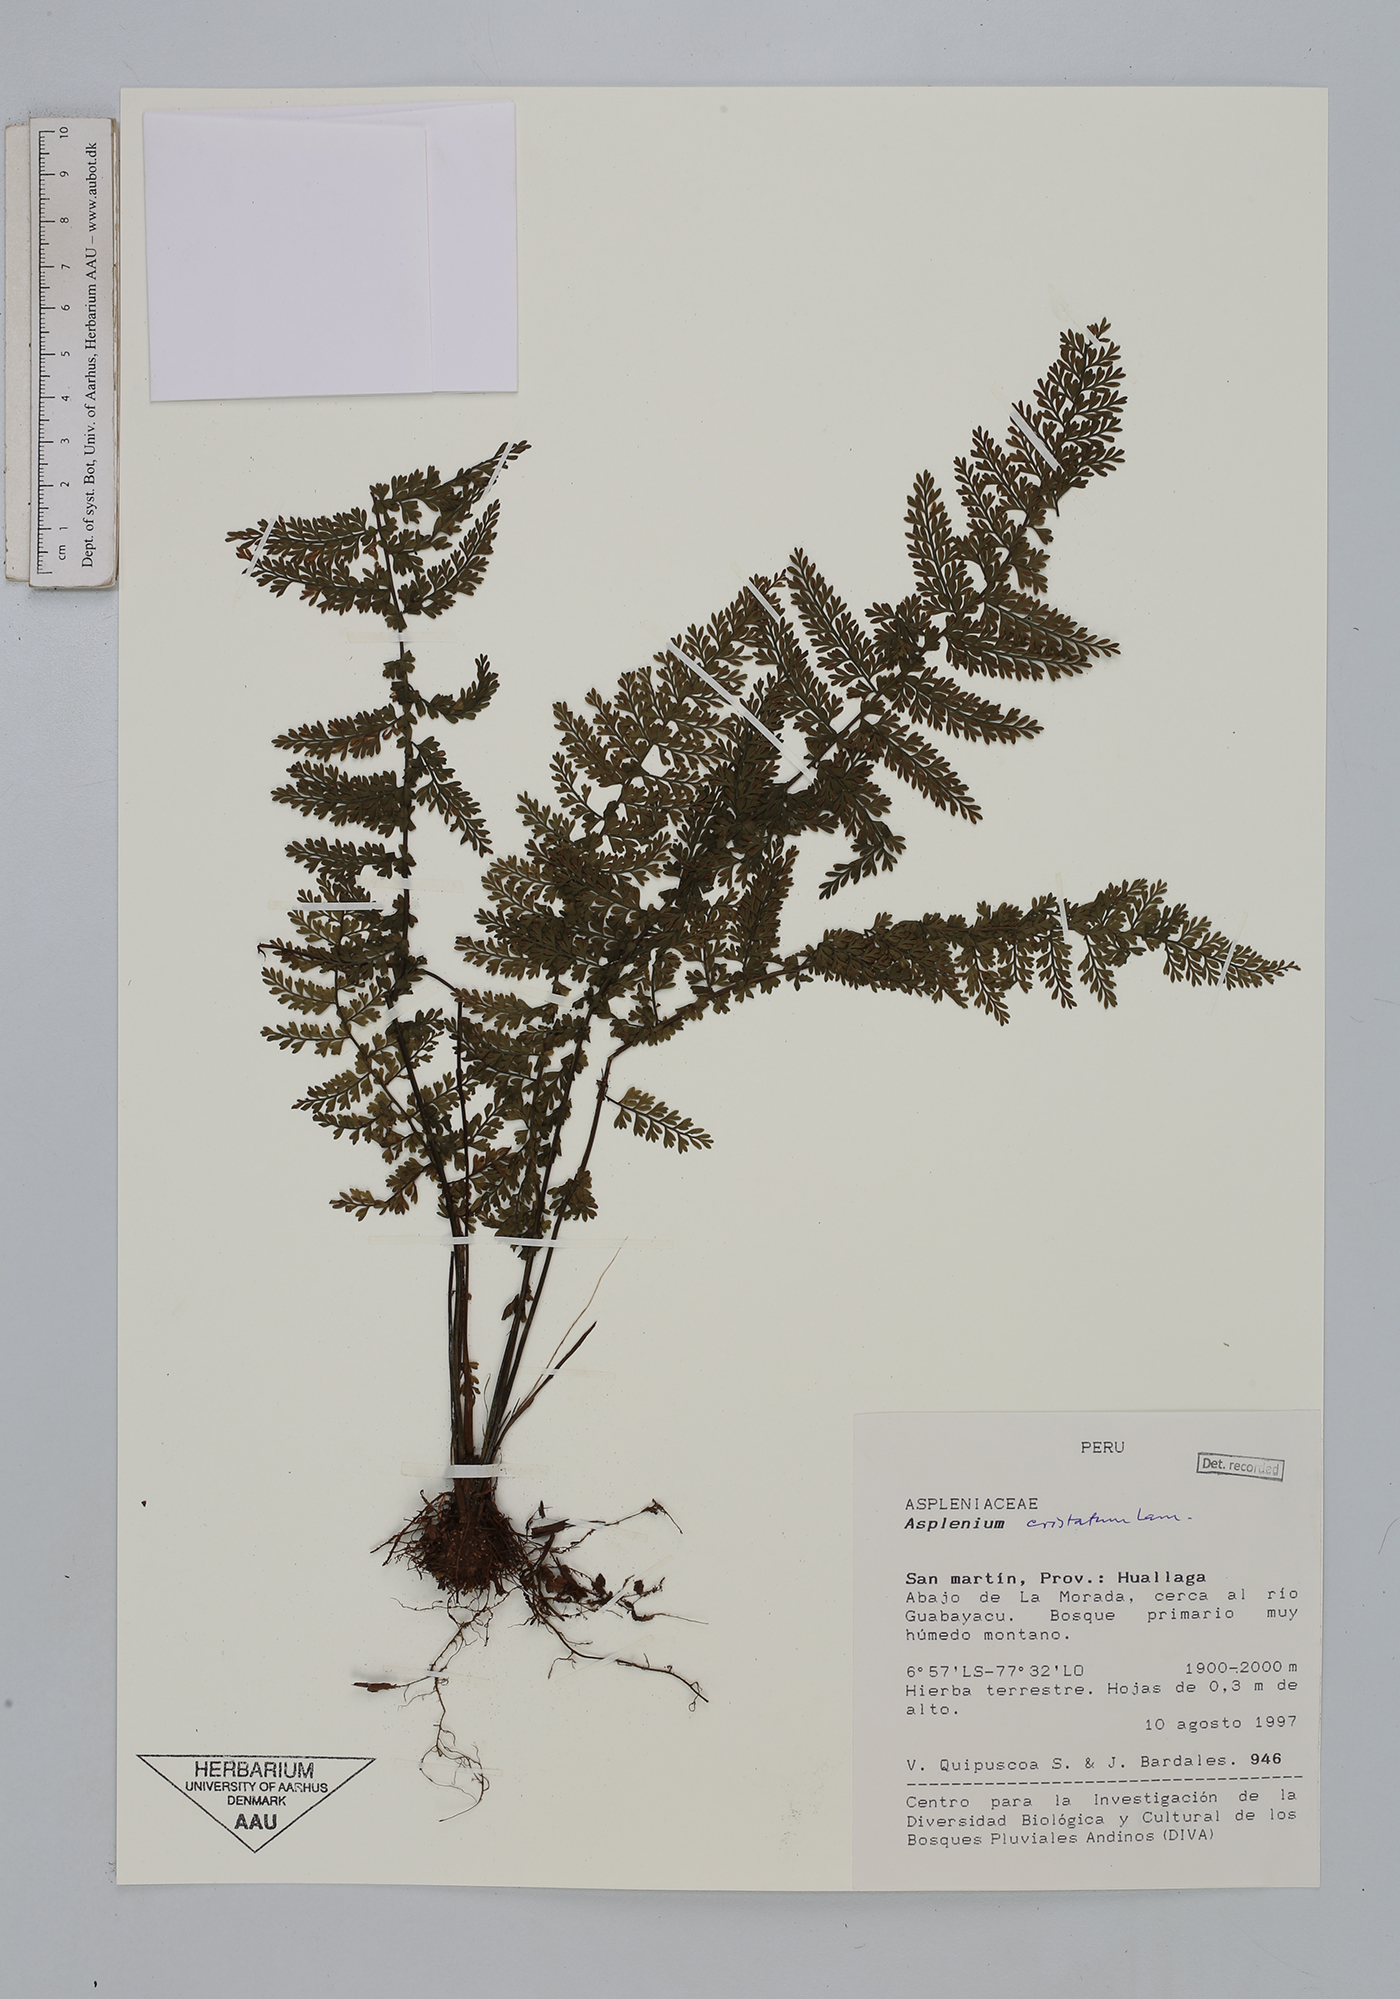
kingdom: Plantae
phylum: Tracheophyta
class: Polypodiopsida
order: Polypodiales
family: Aspleniaceae
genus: Asplenium
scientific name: Asplenium cristatum
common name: Parsley spleenwort
